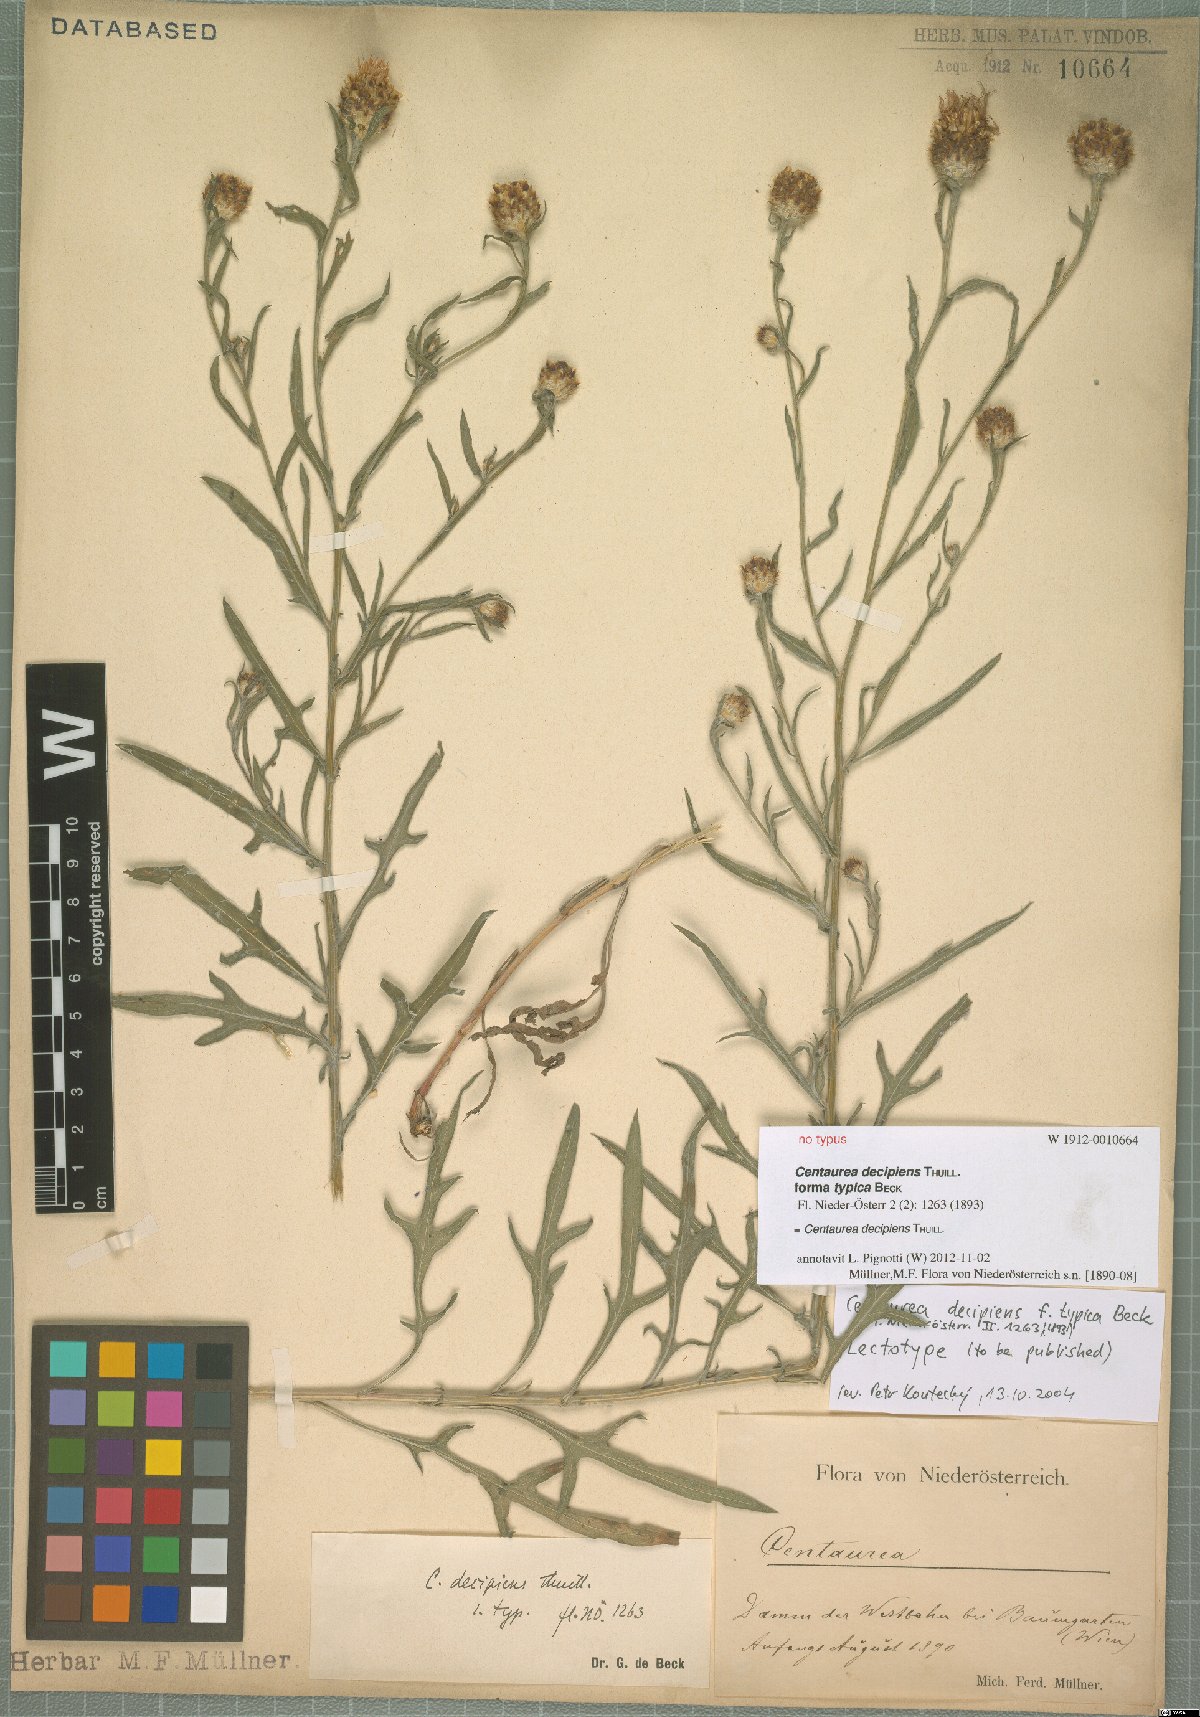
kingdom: Plantae
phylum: Tracheophyta
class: Magnoliopsida
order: Asterales
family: Asteraceae
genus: Centaurea
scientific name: Centaurea decipiens
